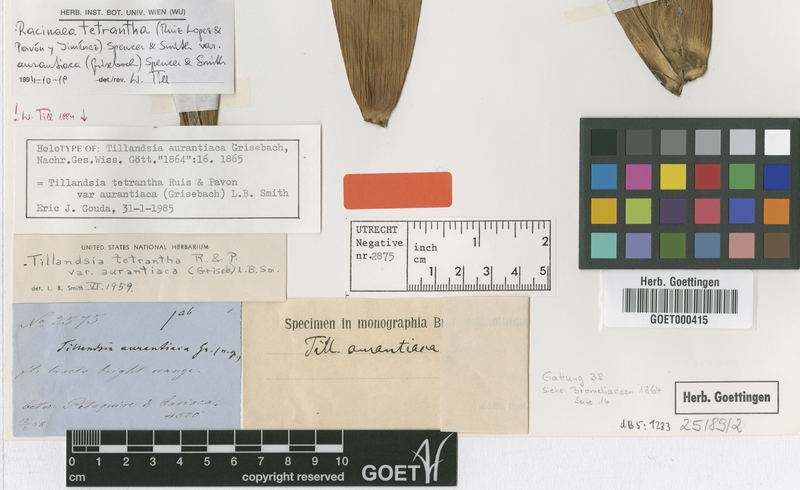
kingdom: Plantae
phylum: Tracheophyta
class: Liliopsida
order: Poales
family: Bromeliaceae
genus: Racinaea
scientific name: Racinaea tetrantha
